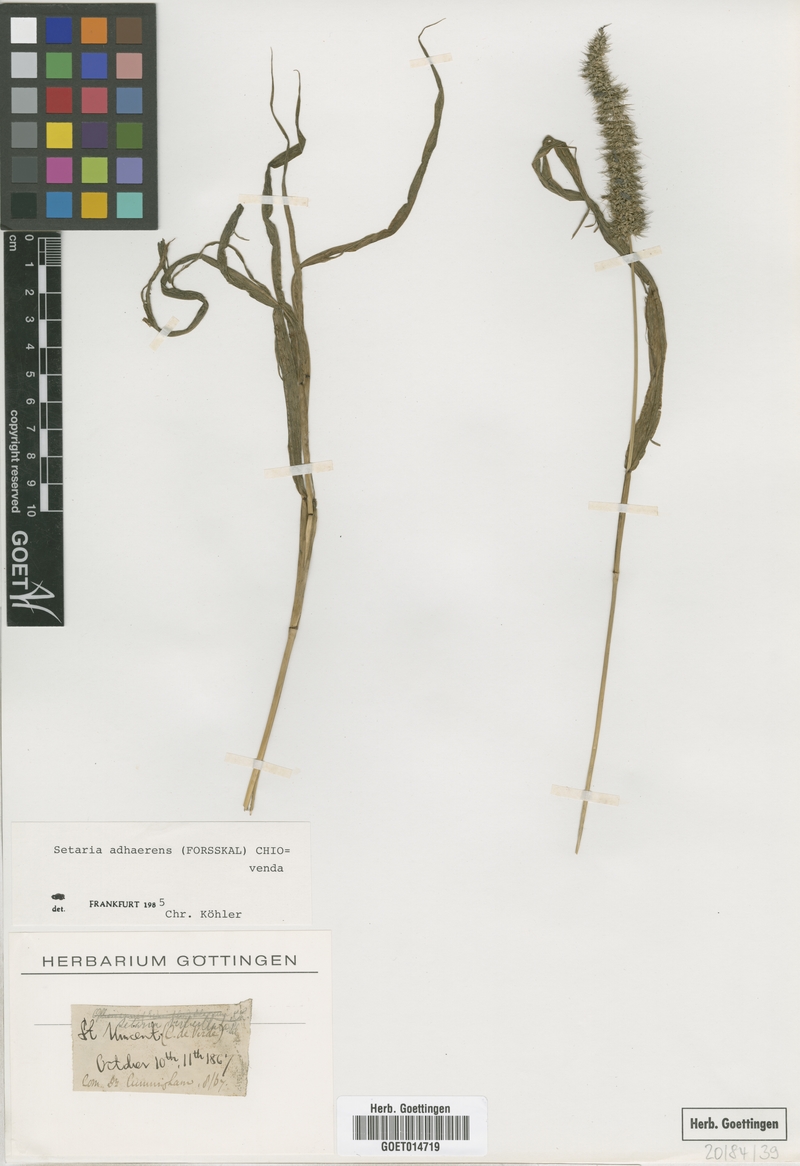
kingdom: Plantae
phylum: Tracheophyta
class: Liliopsida
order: Poales
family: Poaceae
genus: Setaria
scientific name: Setaria adhaerens
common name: Adherent bristle-grass
